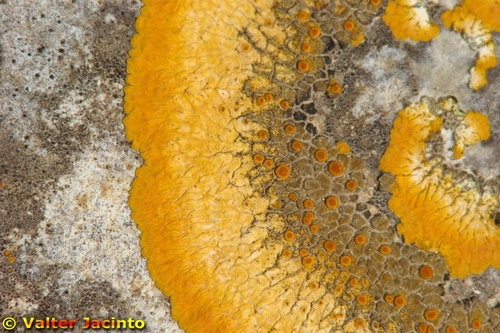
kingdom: Fungi
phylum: Ascomycota
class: Lecanoromycetes
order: Teloschistales
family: Teloschistaceae
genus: Variospora
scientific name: Variospora aurantia
